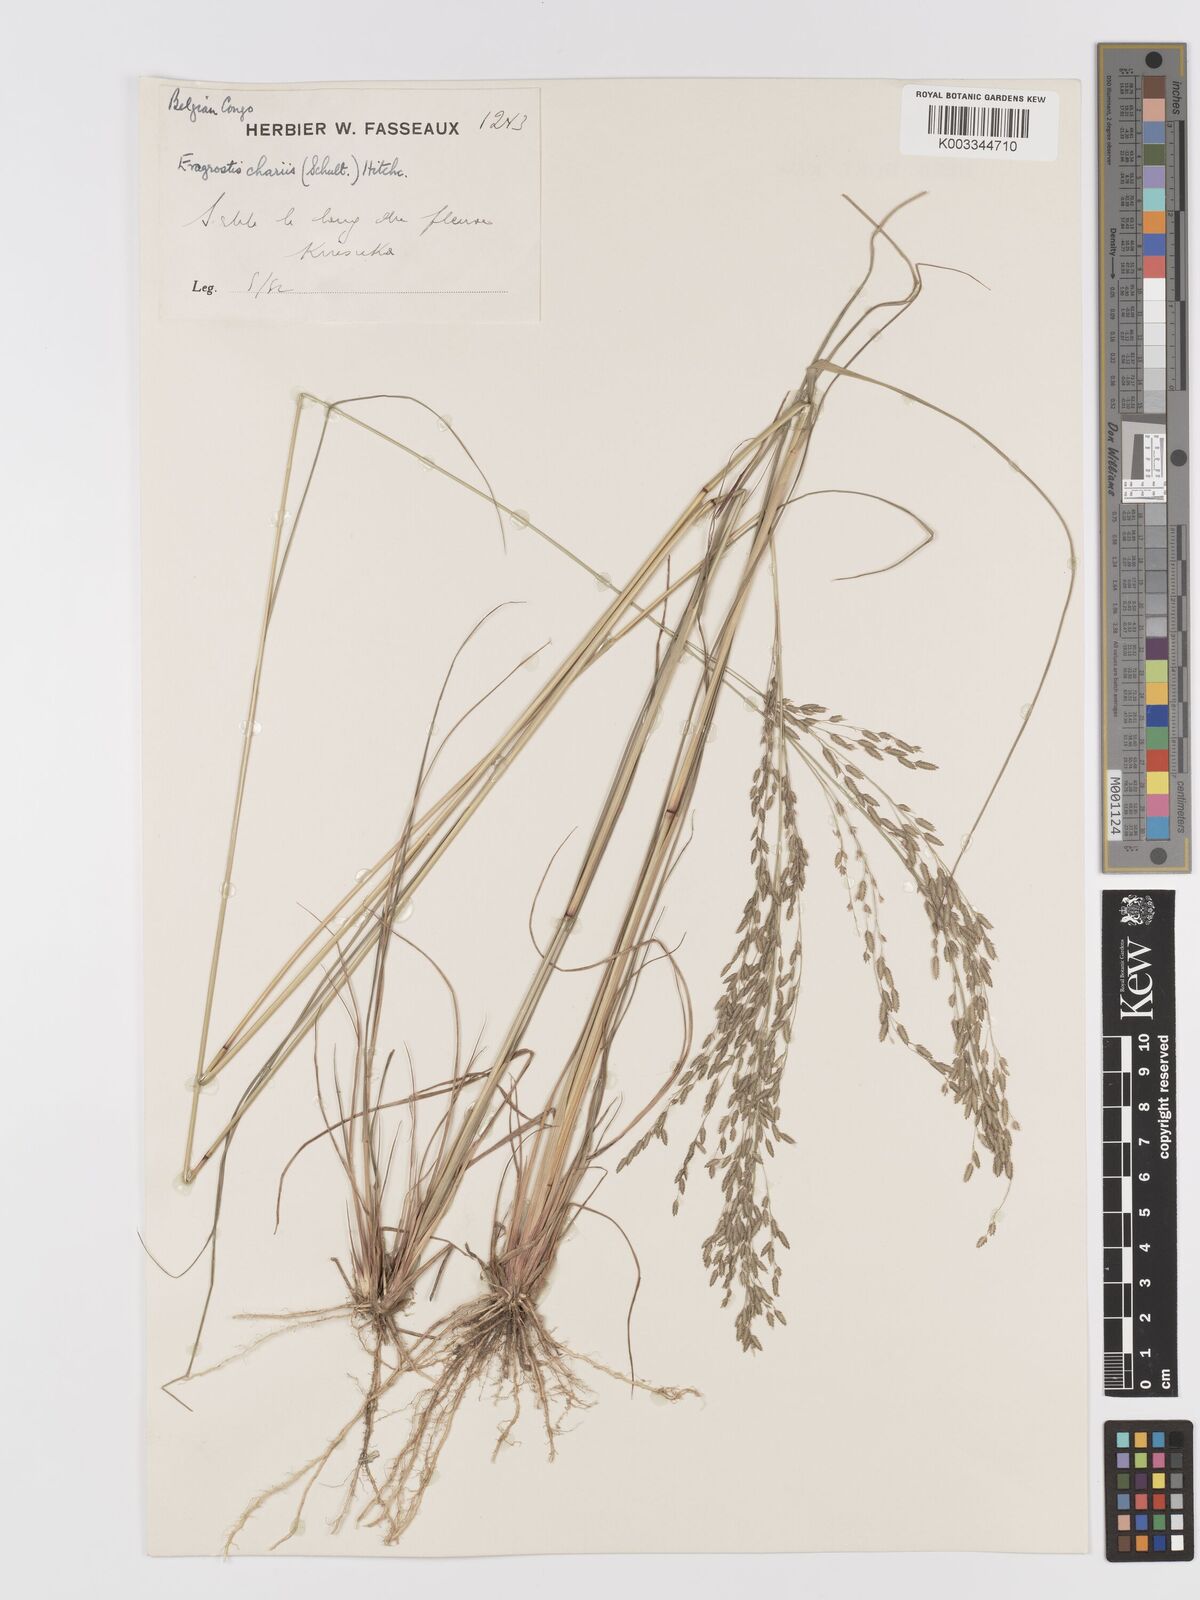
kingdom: Plantae
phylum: Tracheophyta
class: Liliopsida
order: Poales
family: Poaceae
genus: Eragrostis
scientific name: Eragrostis atrovirens
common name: Thalia lovegrass
